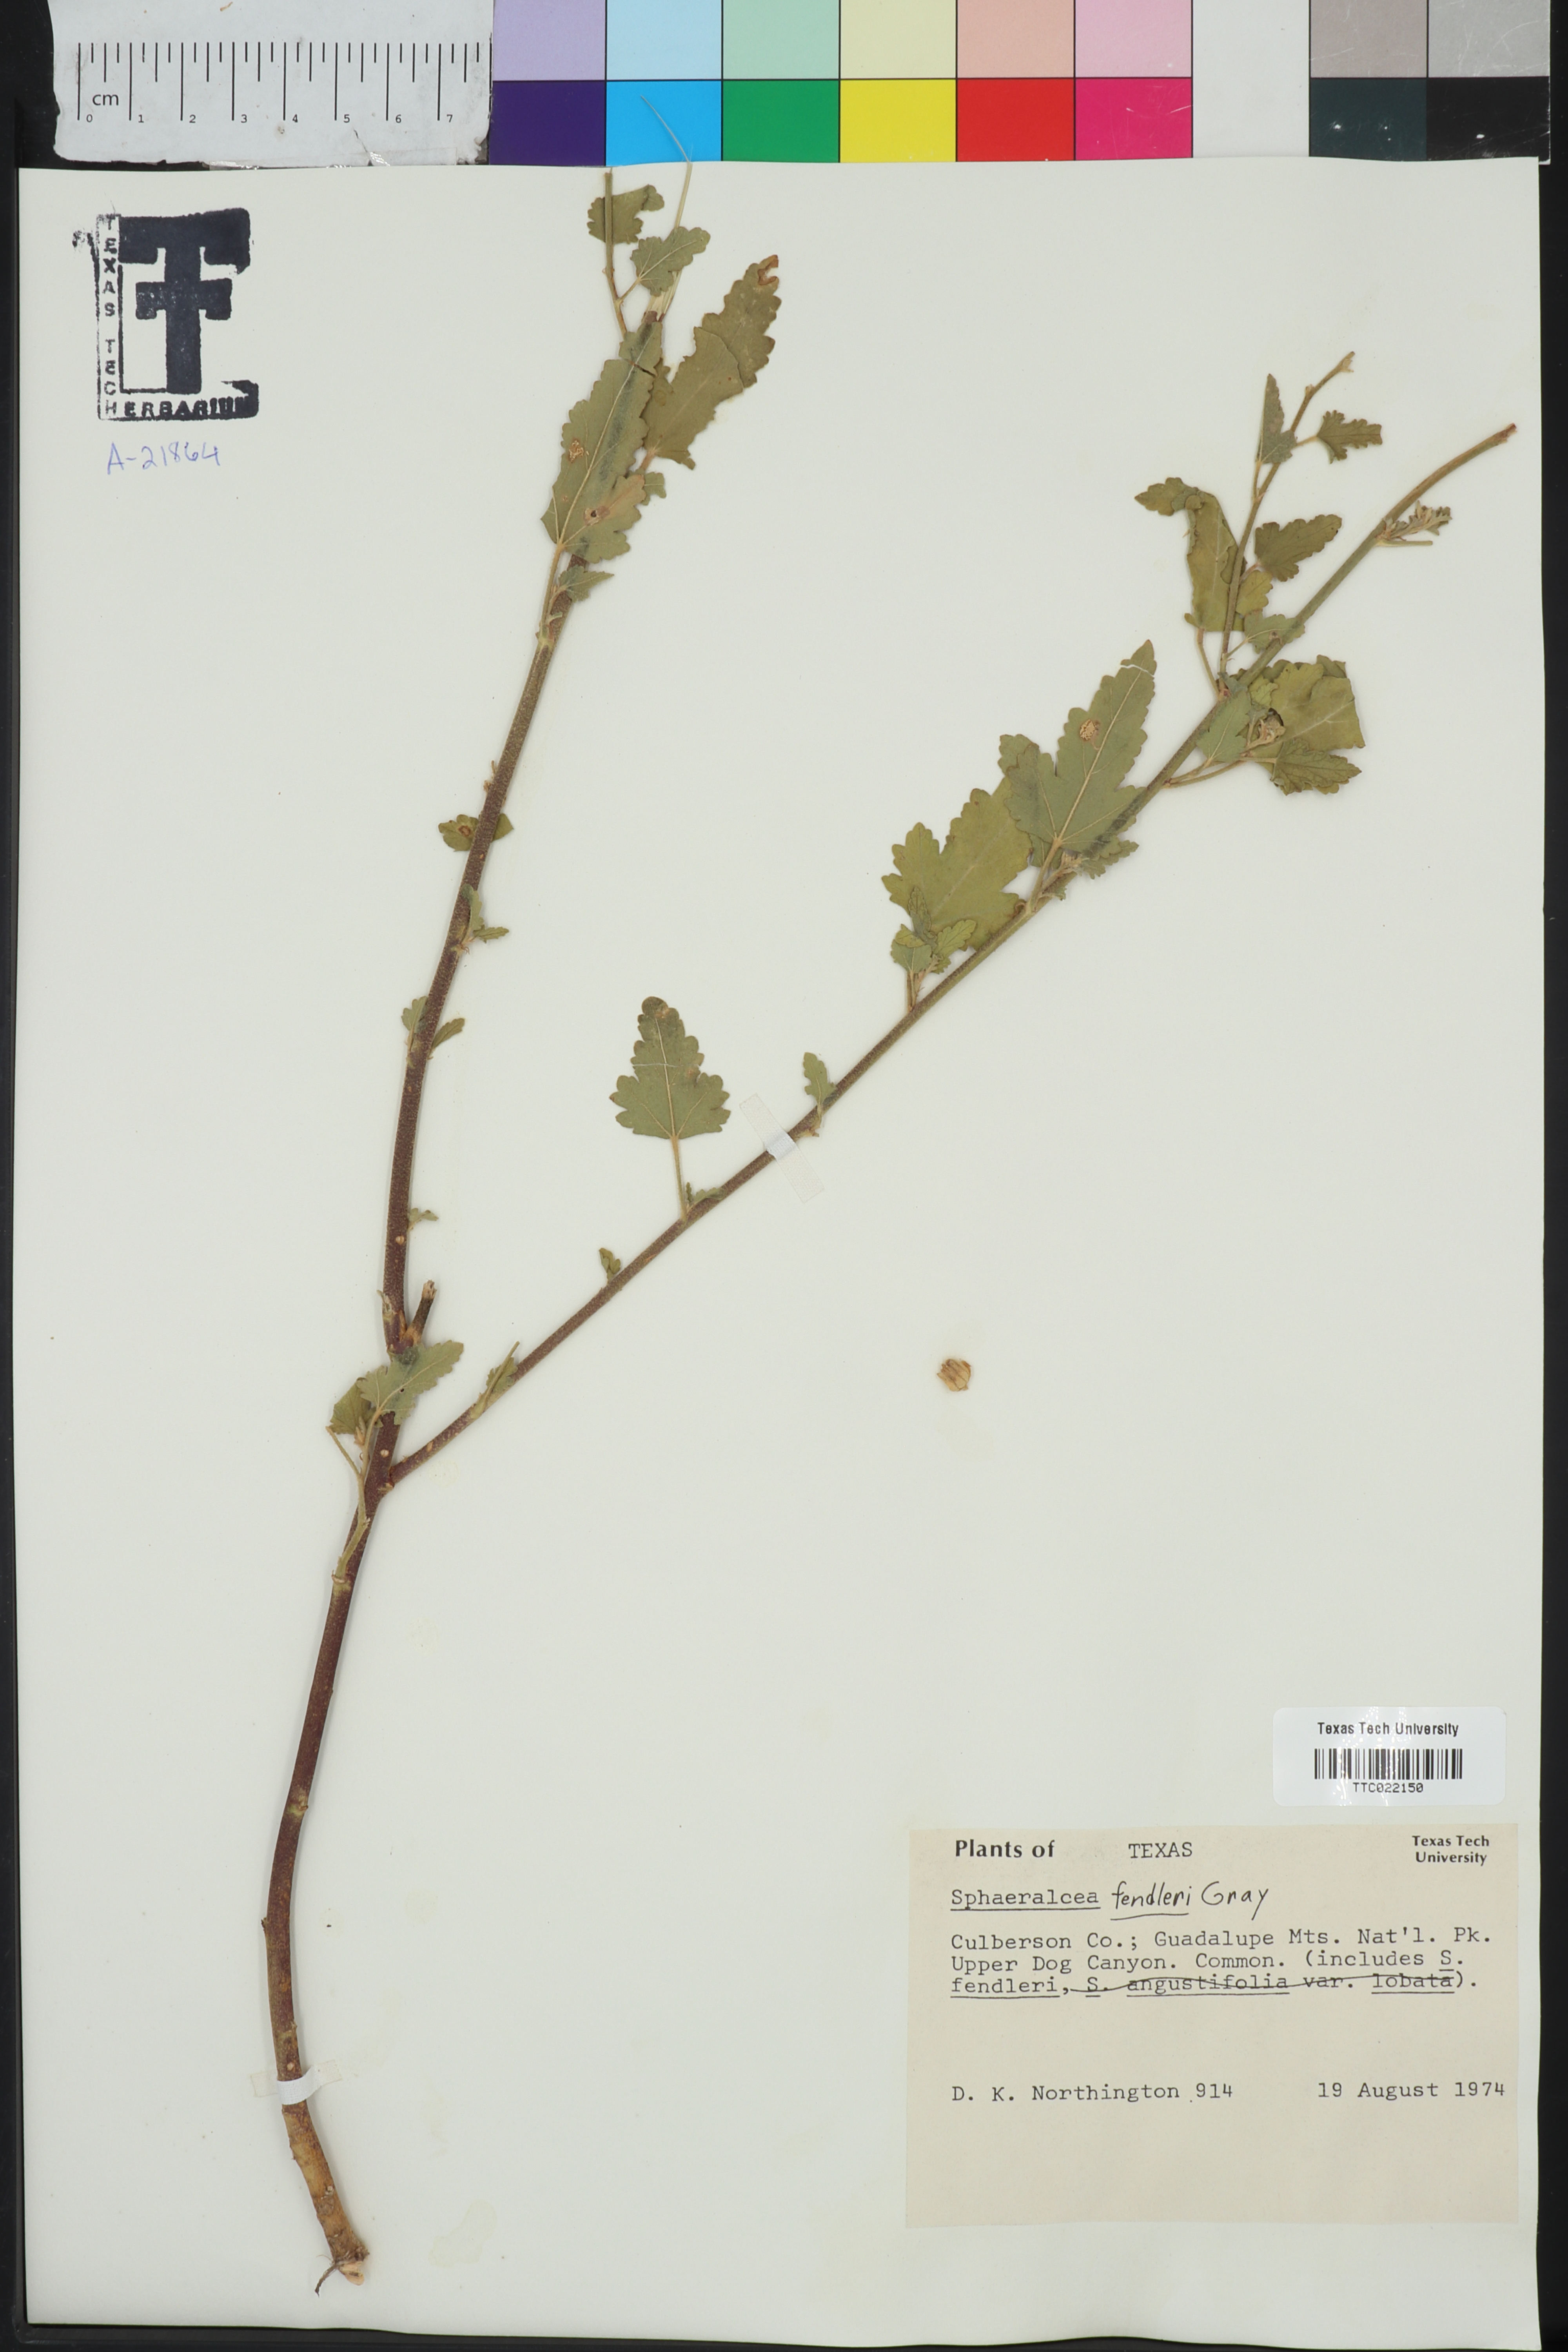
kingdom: Plantae
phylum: Tracheophyta
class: Magnoliopsida
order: Malvales
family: Malvaceae
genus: Sphaeralcea
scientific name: Sphaeralcea fendleri
